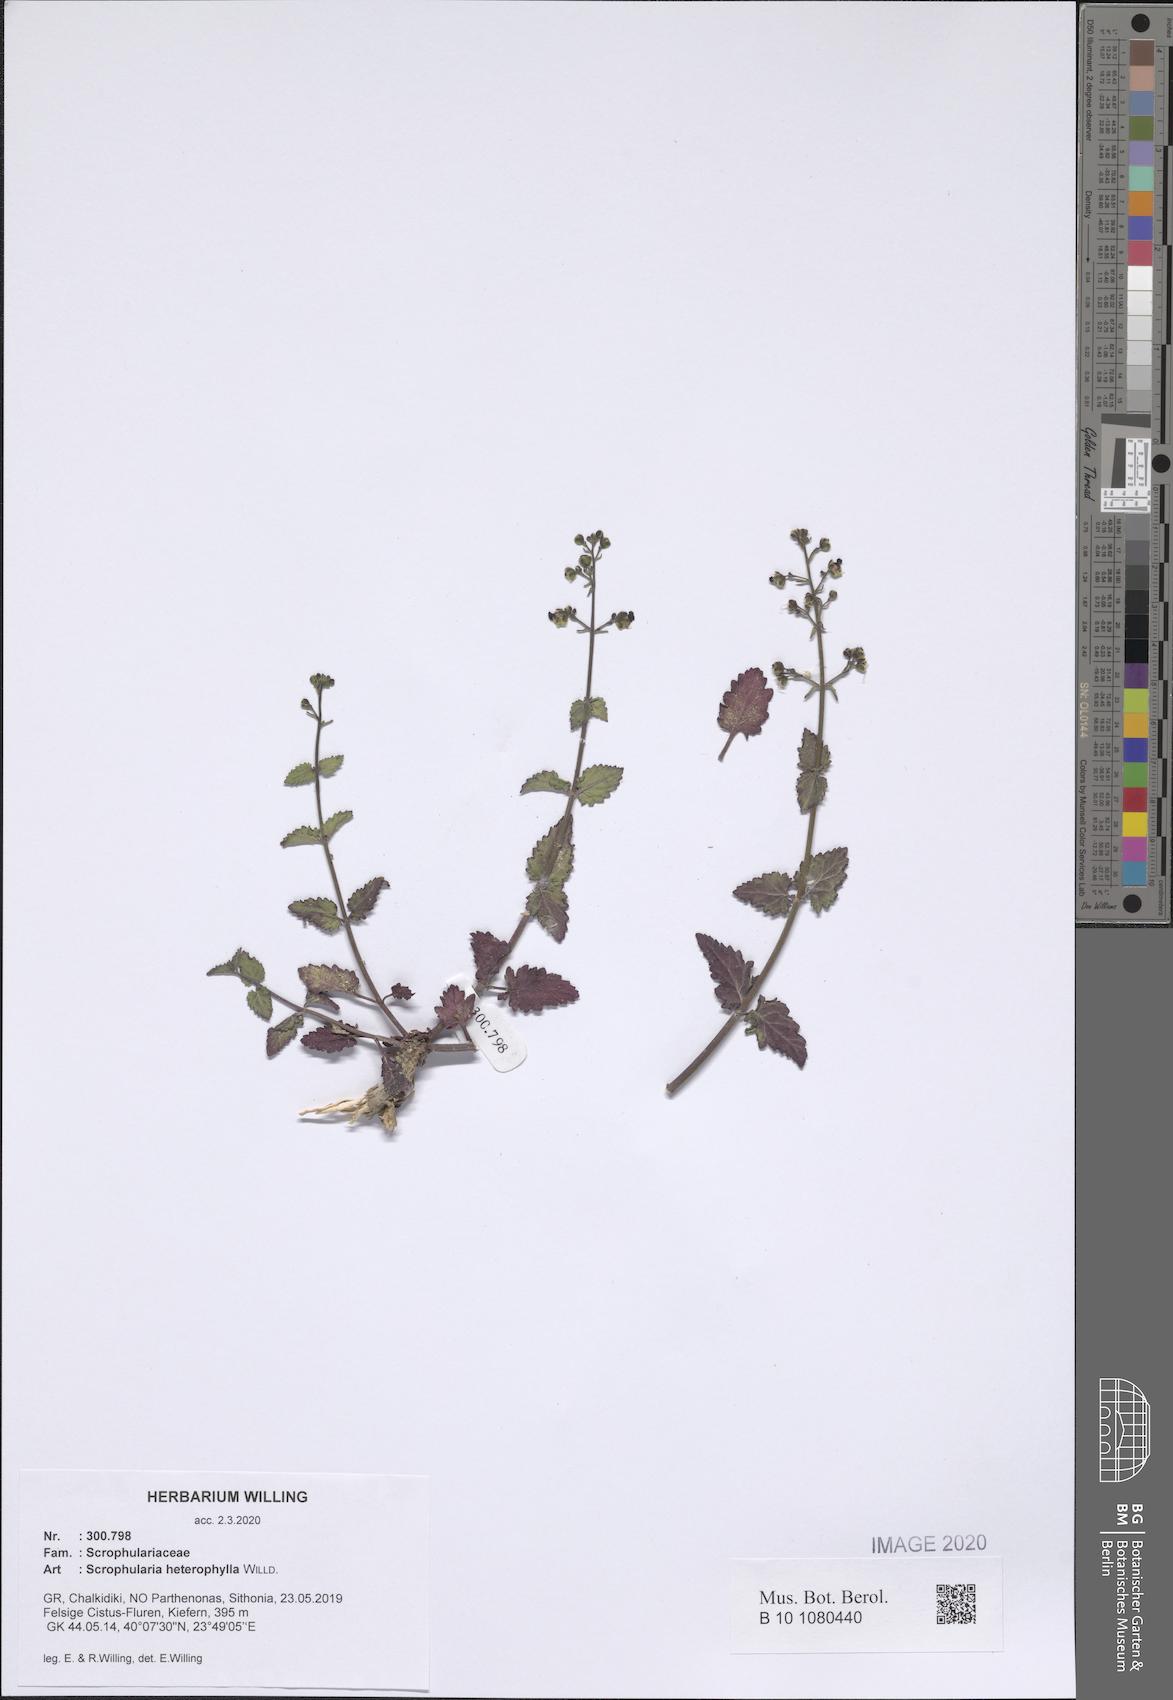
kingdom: Plantae
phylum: Tracheophyta
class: Magnoliopsida
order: Lamiales
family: Scrophulariaceae
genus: Scrophularia
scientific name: Scrophularia heterophylla
